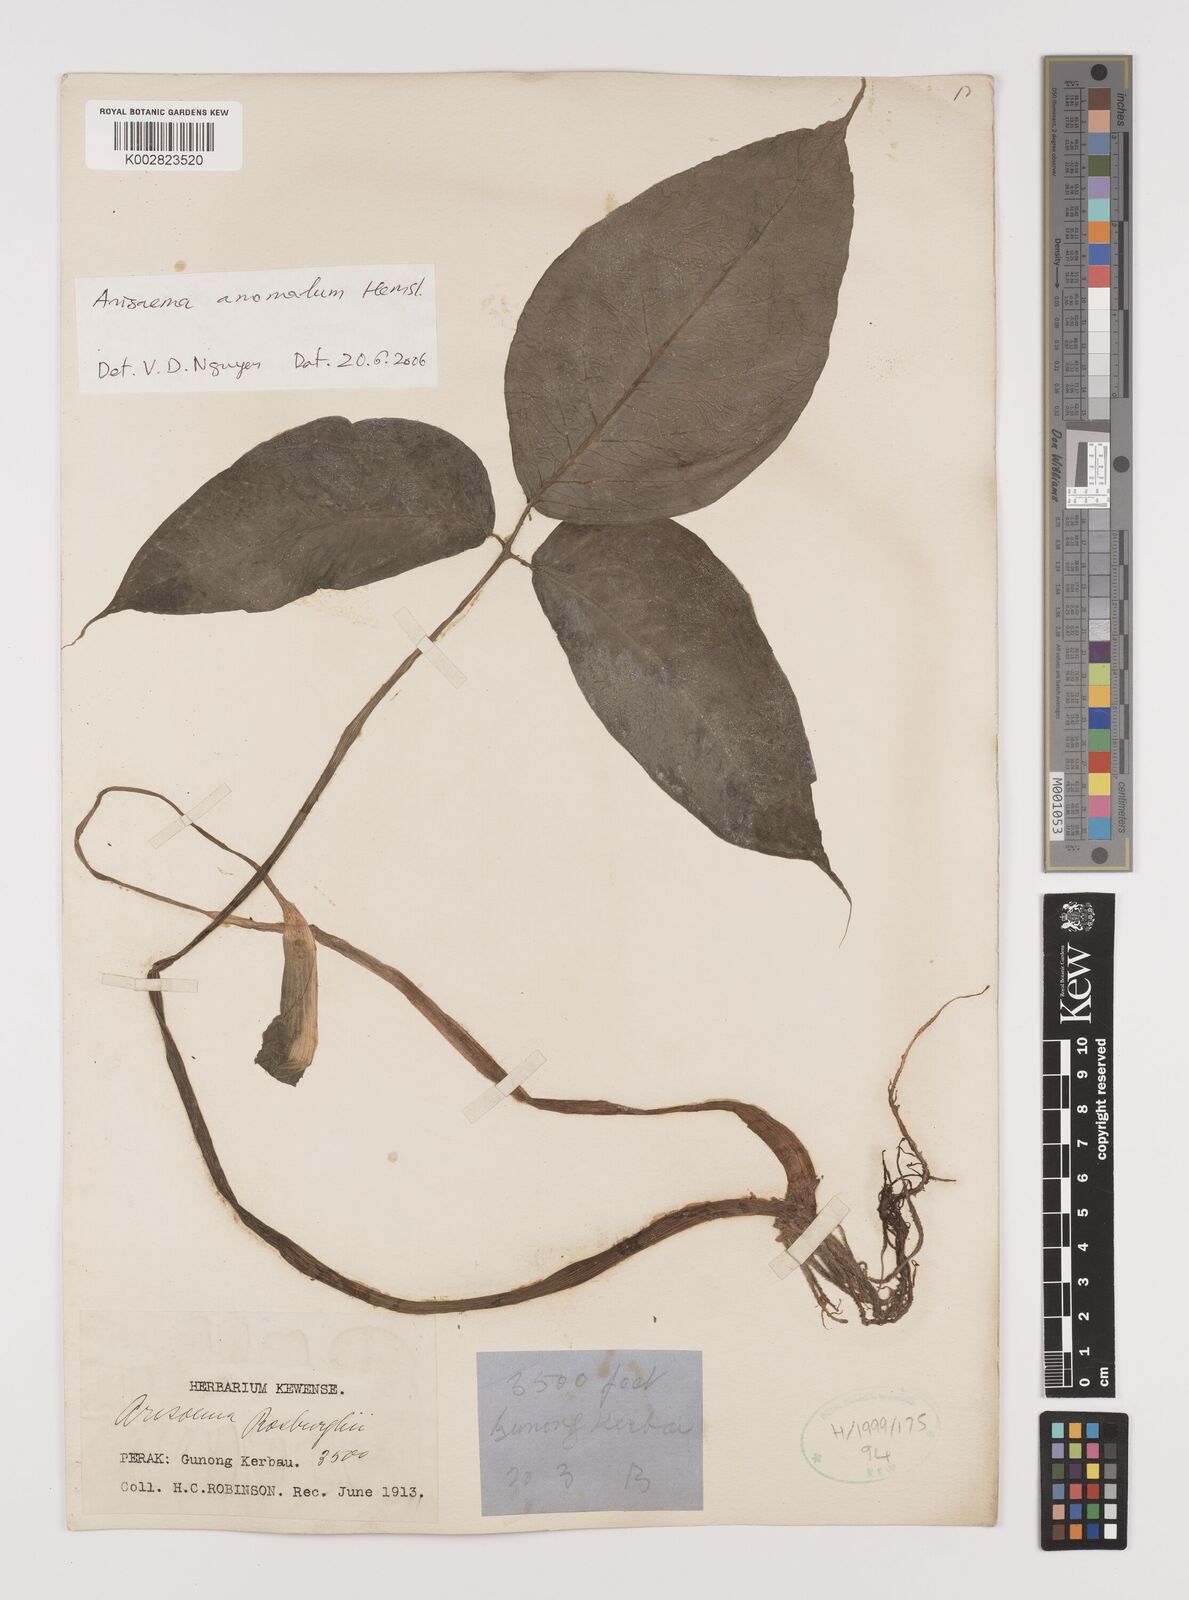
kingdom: Plantae
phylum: Tracheophyta
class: Liliopsida
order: Alismatales
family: Araceae
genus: Arisaema
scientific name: Arisaema anomalum
